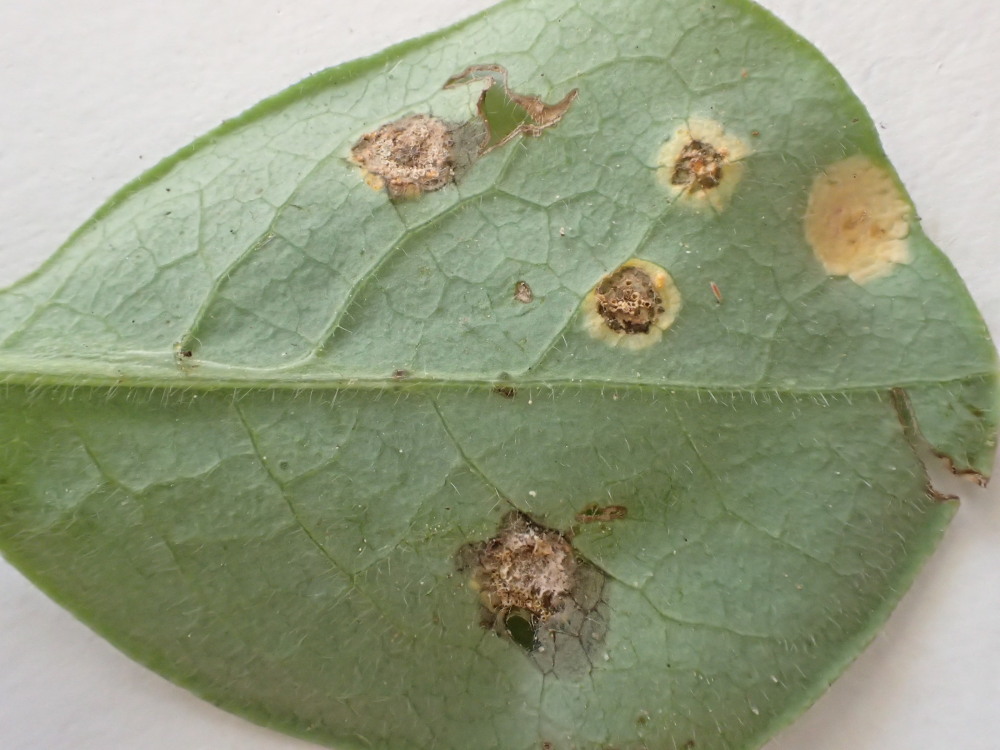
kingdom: Fungi
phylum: Basidiomycota
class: Pucciniomycetes
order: Pucciniales
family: Pucciniaceae
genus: Puccinia
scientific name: Puccinia festucae
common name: gedeblad-tvecellerust
